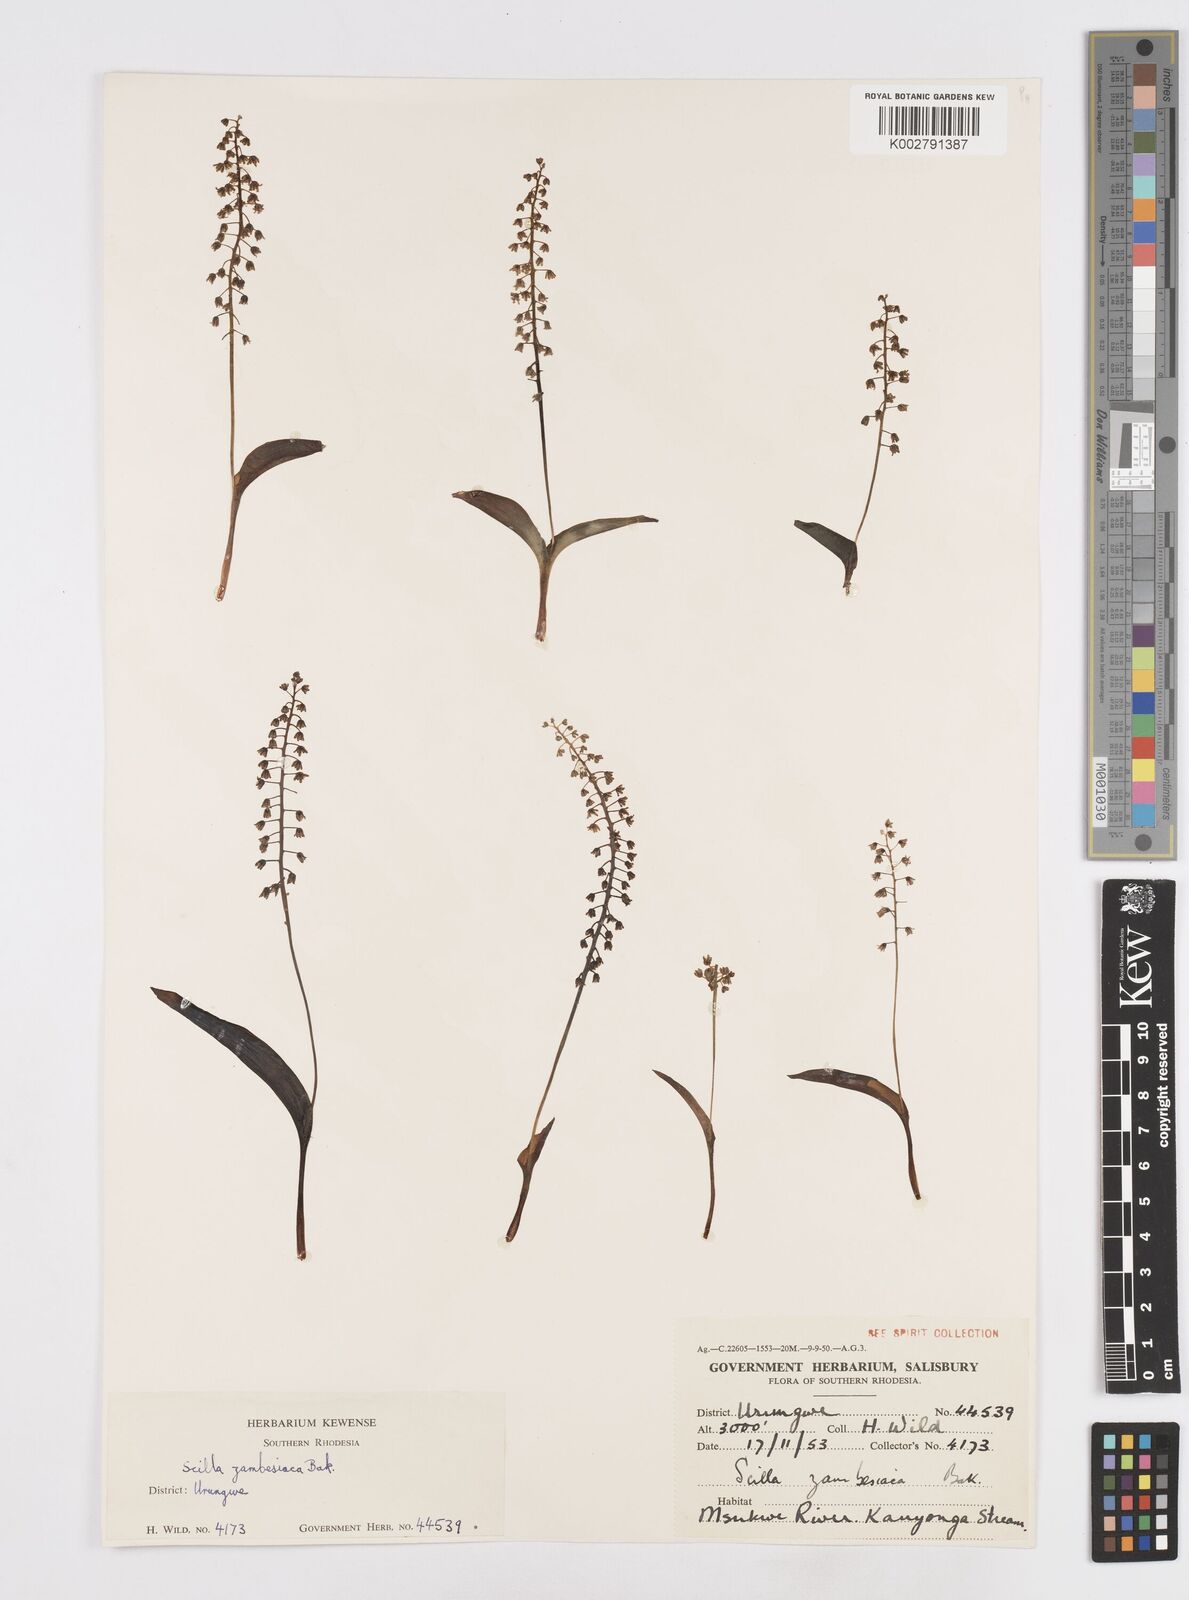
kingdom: Plantae
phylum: Tracheophyta
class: Liliopsida
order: Asparagales
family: Asparagaceae
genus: Ledebouria
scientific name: Ledebouria zambesiaca
